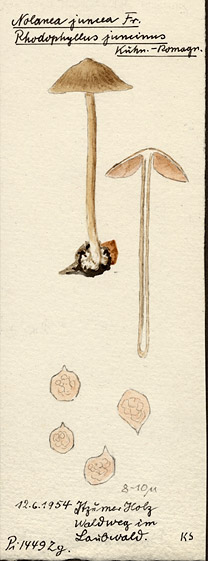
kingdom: Fungi
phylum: Basidiomycota
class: Agaricomycetes
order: Agaricales
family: Entolomataceae
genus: Entoloma
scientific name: Entoloma juncinum
